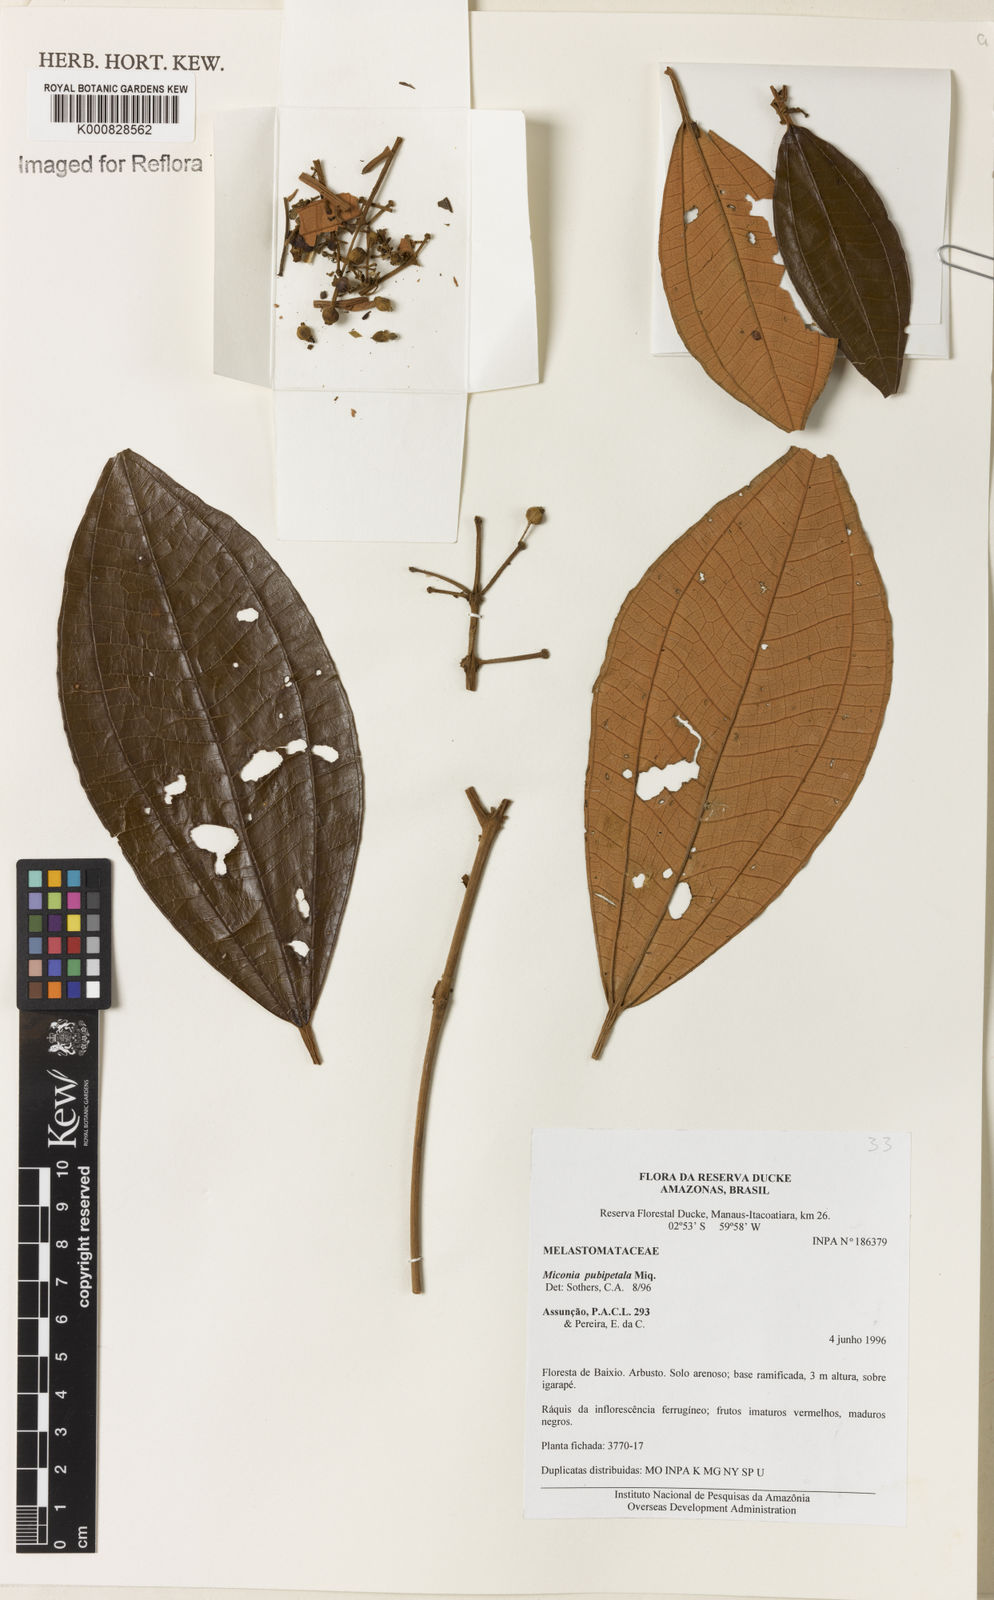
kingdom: Plantae
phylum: Tracheophyta
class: Magnoliopsida
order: Myrtales
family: Melastomataceae
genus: Miconia
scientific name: Miconia pubipetala
